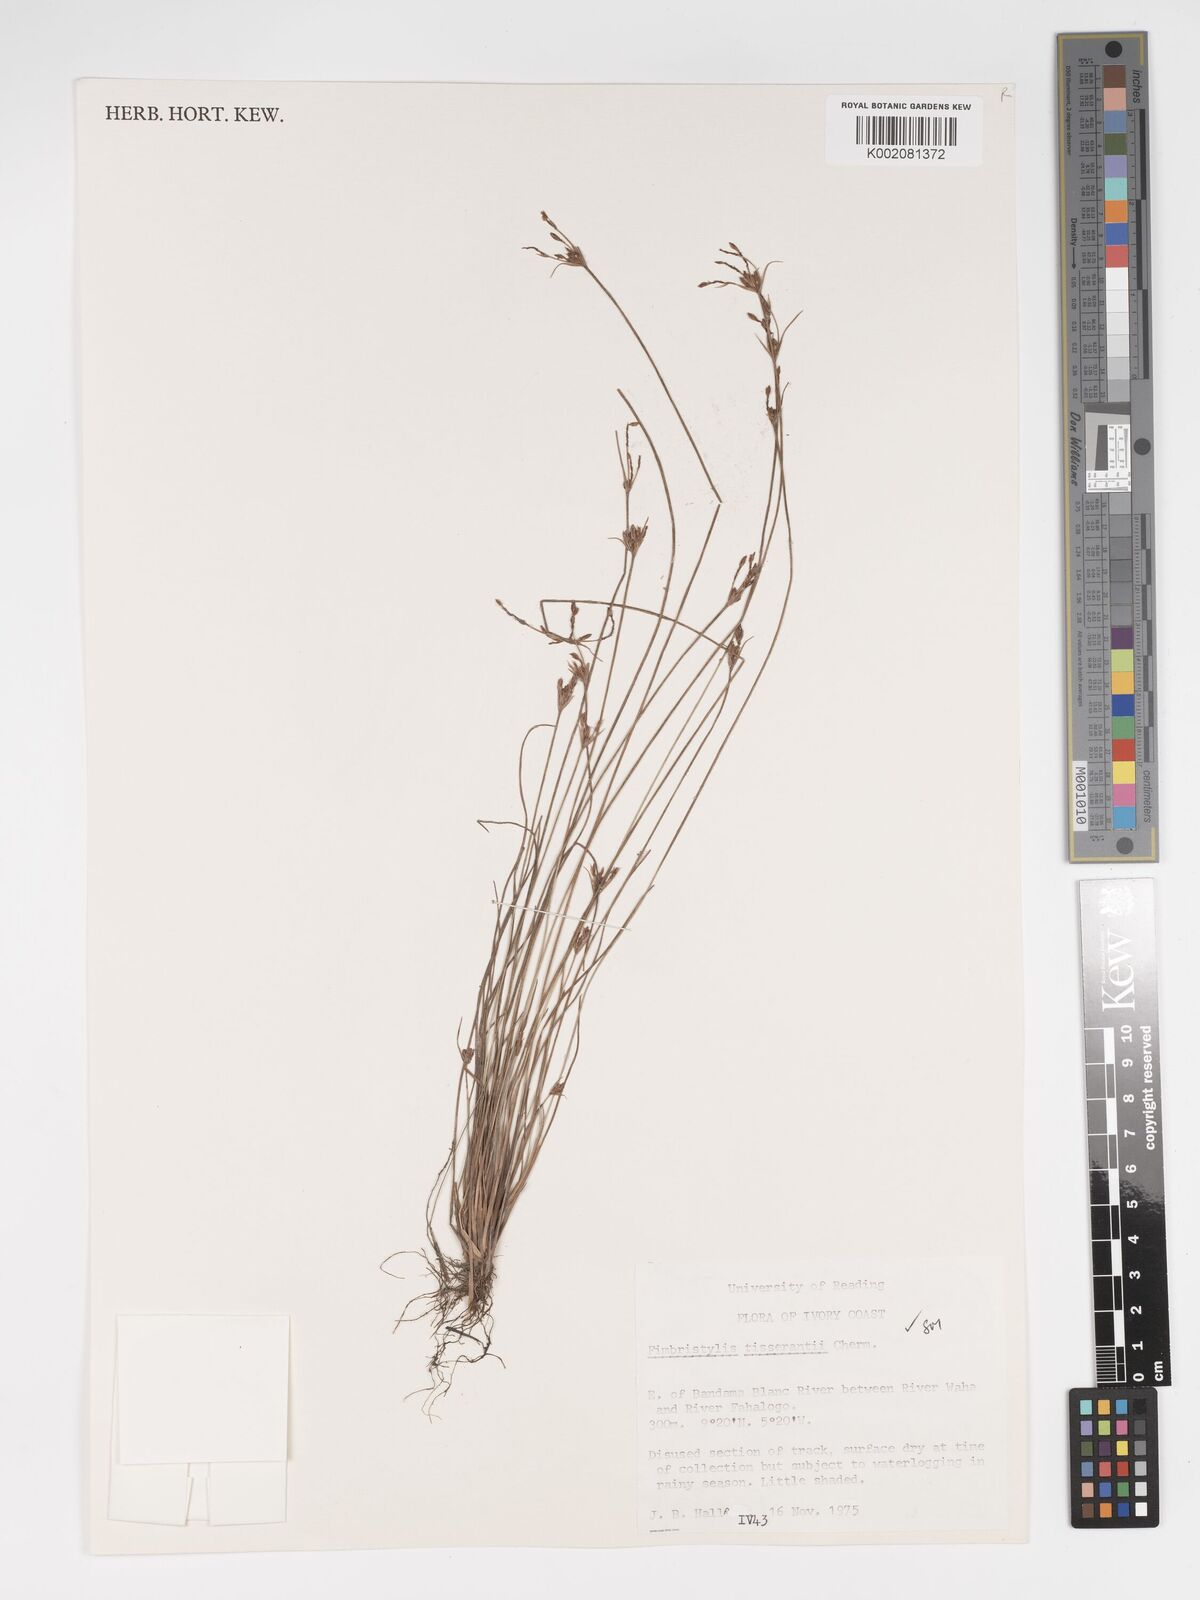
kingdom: Plantae
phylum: Tracheophyta
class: Liliopsida
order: Poales
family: Cyperaceae
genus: Bulbostylis
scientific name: Bulbostylis viridecarinata
